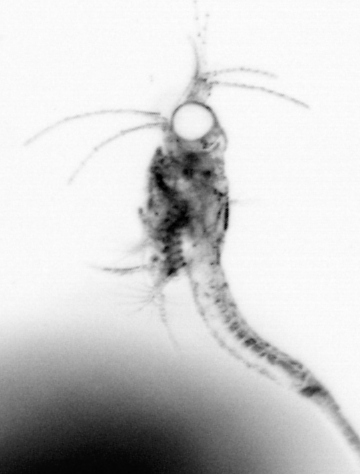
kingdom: Animalia
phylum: Arthropoda
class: Malacostraca
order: Decapoda
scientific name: Decapoda
